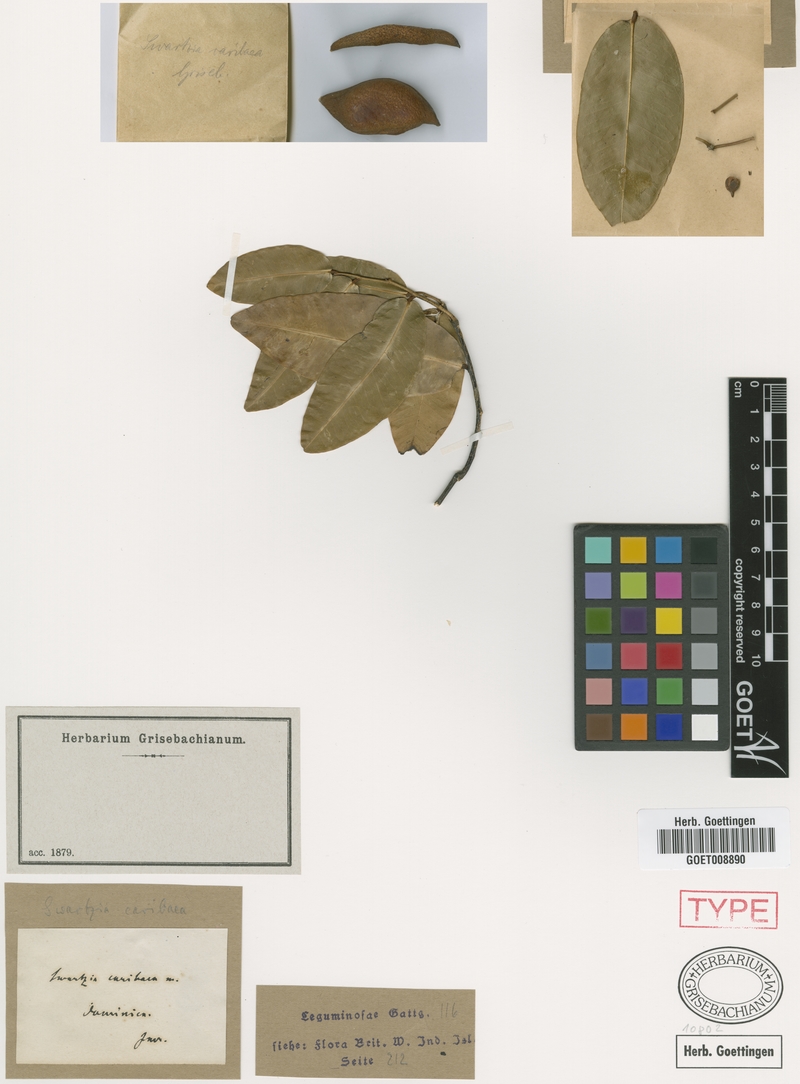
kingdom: Plantae
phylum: Tracheophyta
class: Magnoliopsida
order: Fabales
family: Fabaceae
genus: Swartzia
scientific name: Swartzia caribaea
